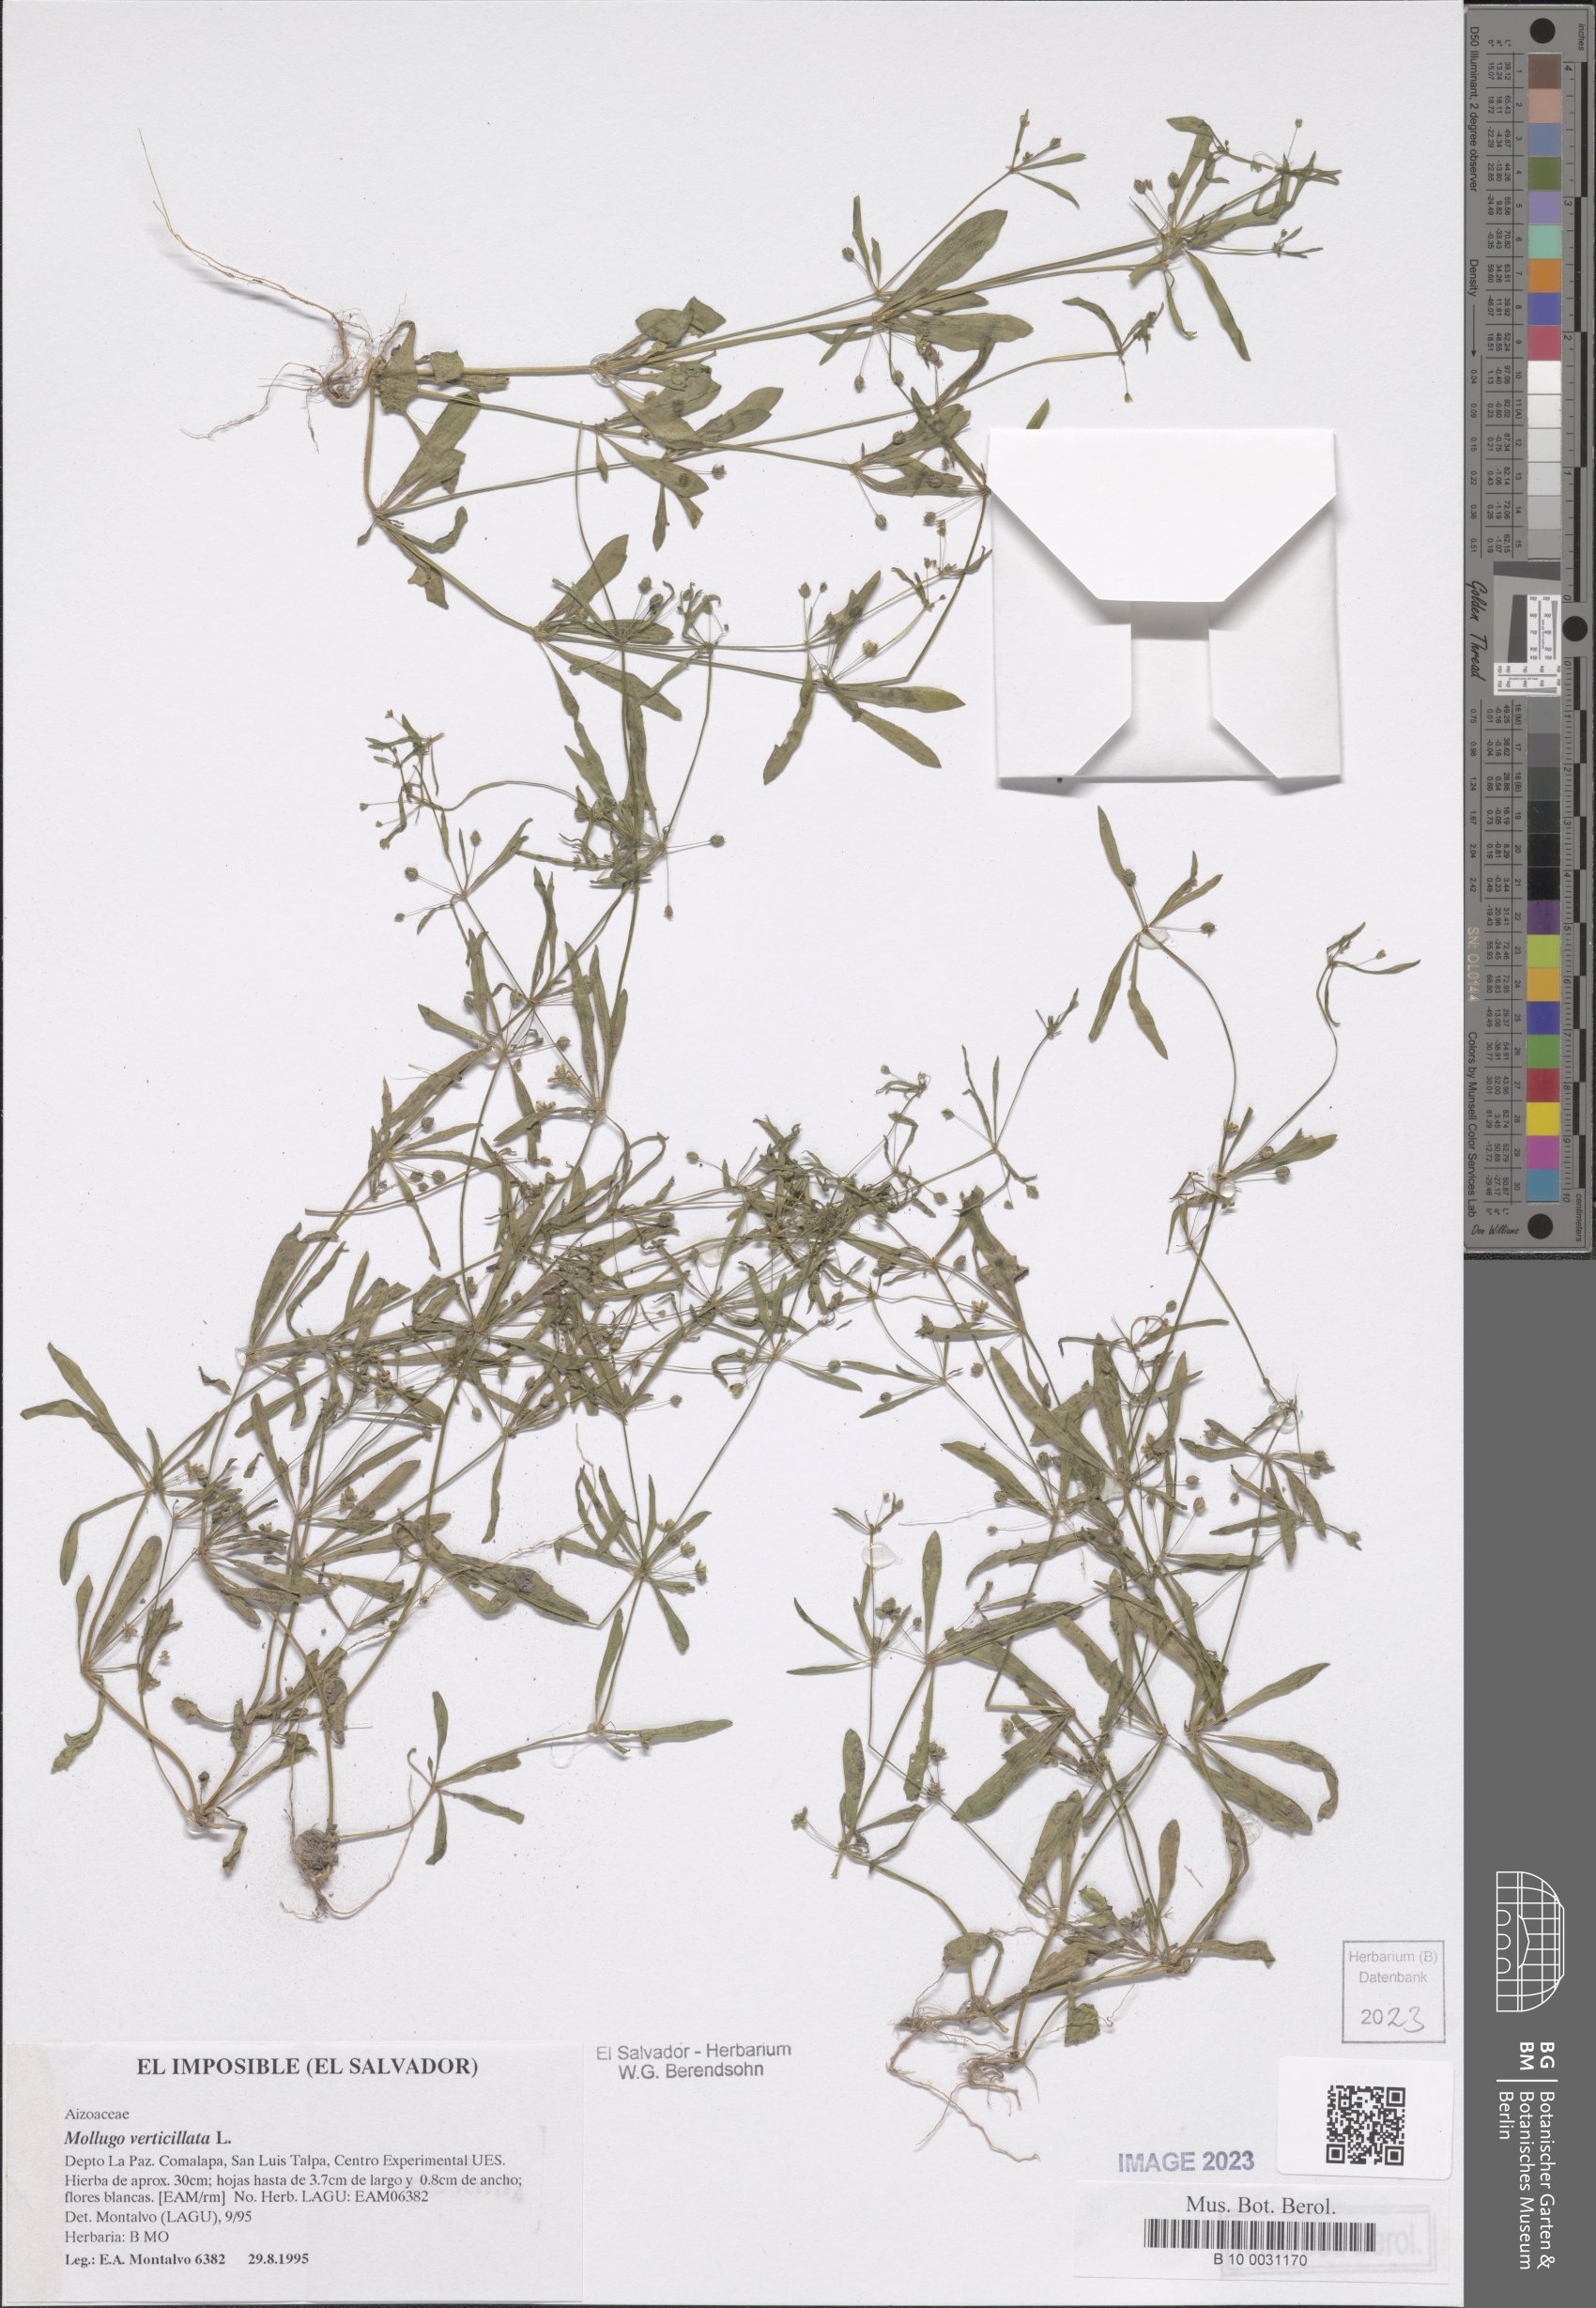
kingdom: Plantae
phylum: Tracheophyta
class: Magnoliopsida
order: Caryophyllales
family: Molluginaceae
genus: Mollugo
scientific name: Mollugo verticillata
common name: Green carpetweed
